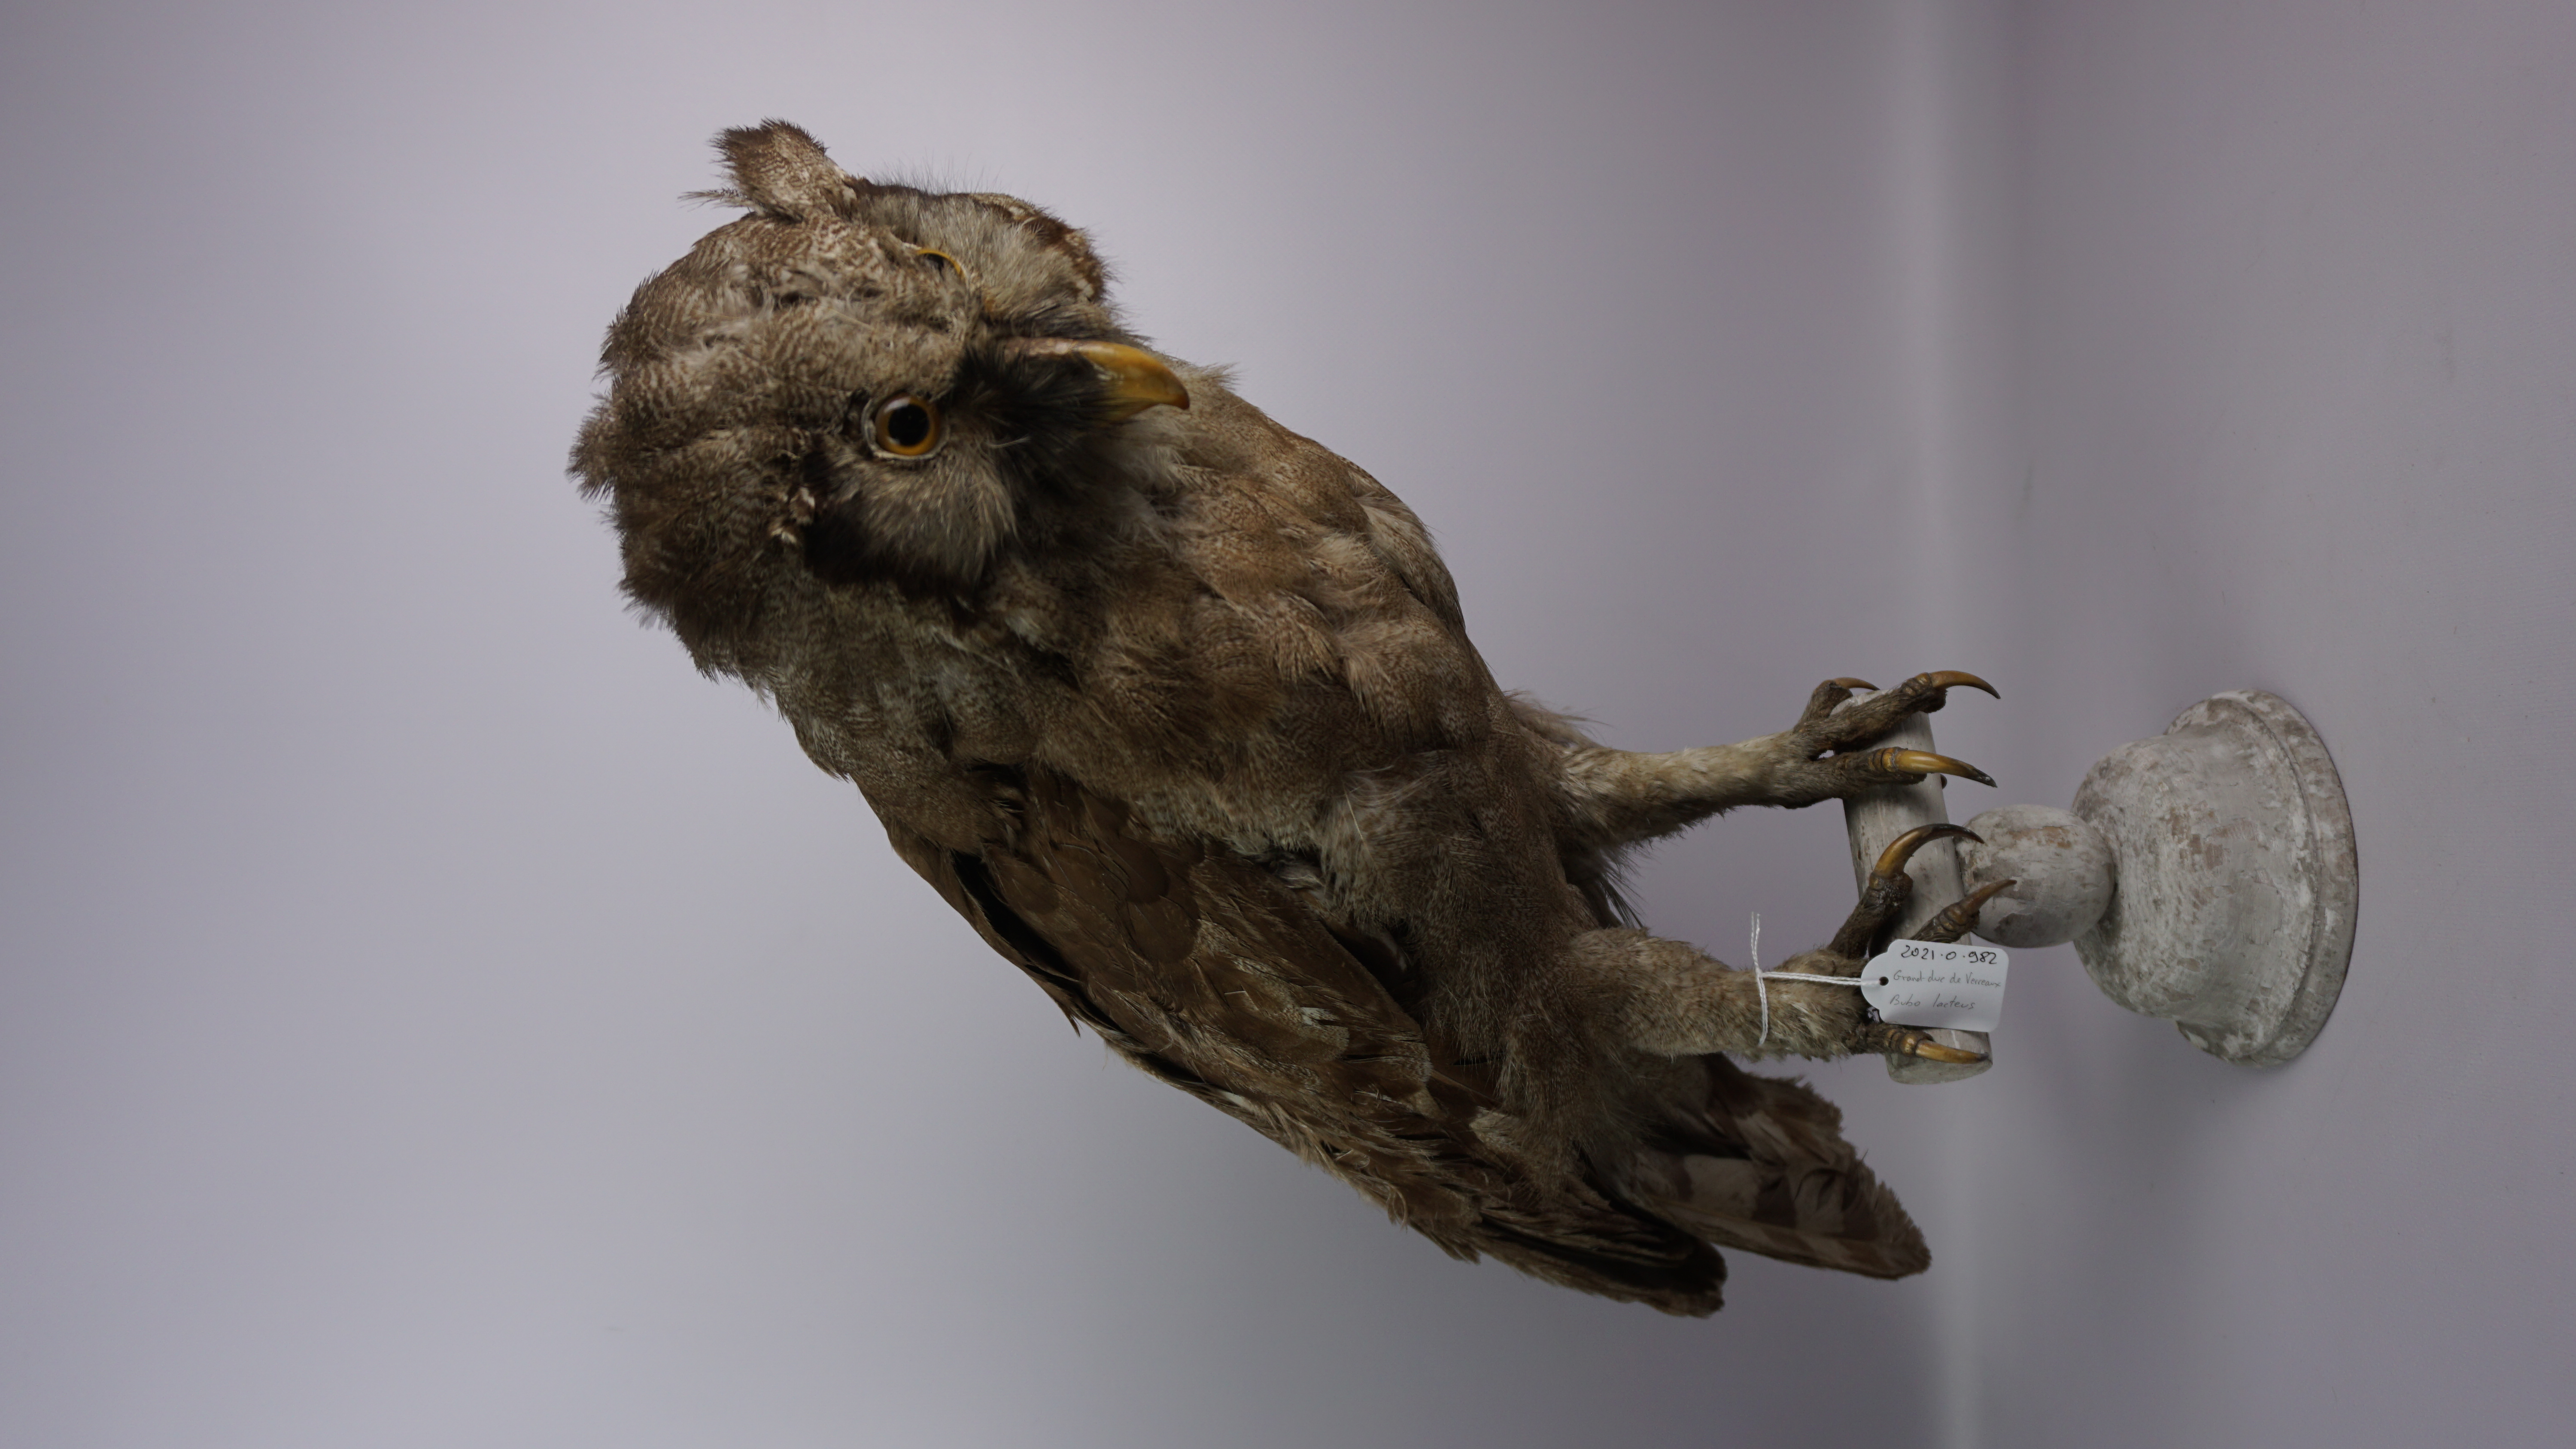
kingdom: Animalia
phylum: Chordata
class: Aves
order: Strigiformes
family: Strigidae
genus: Bubo
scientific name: Bubo lacteus
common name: Verreaux's eagle-owl
